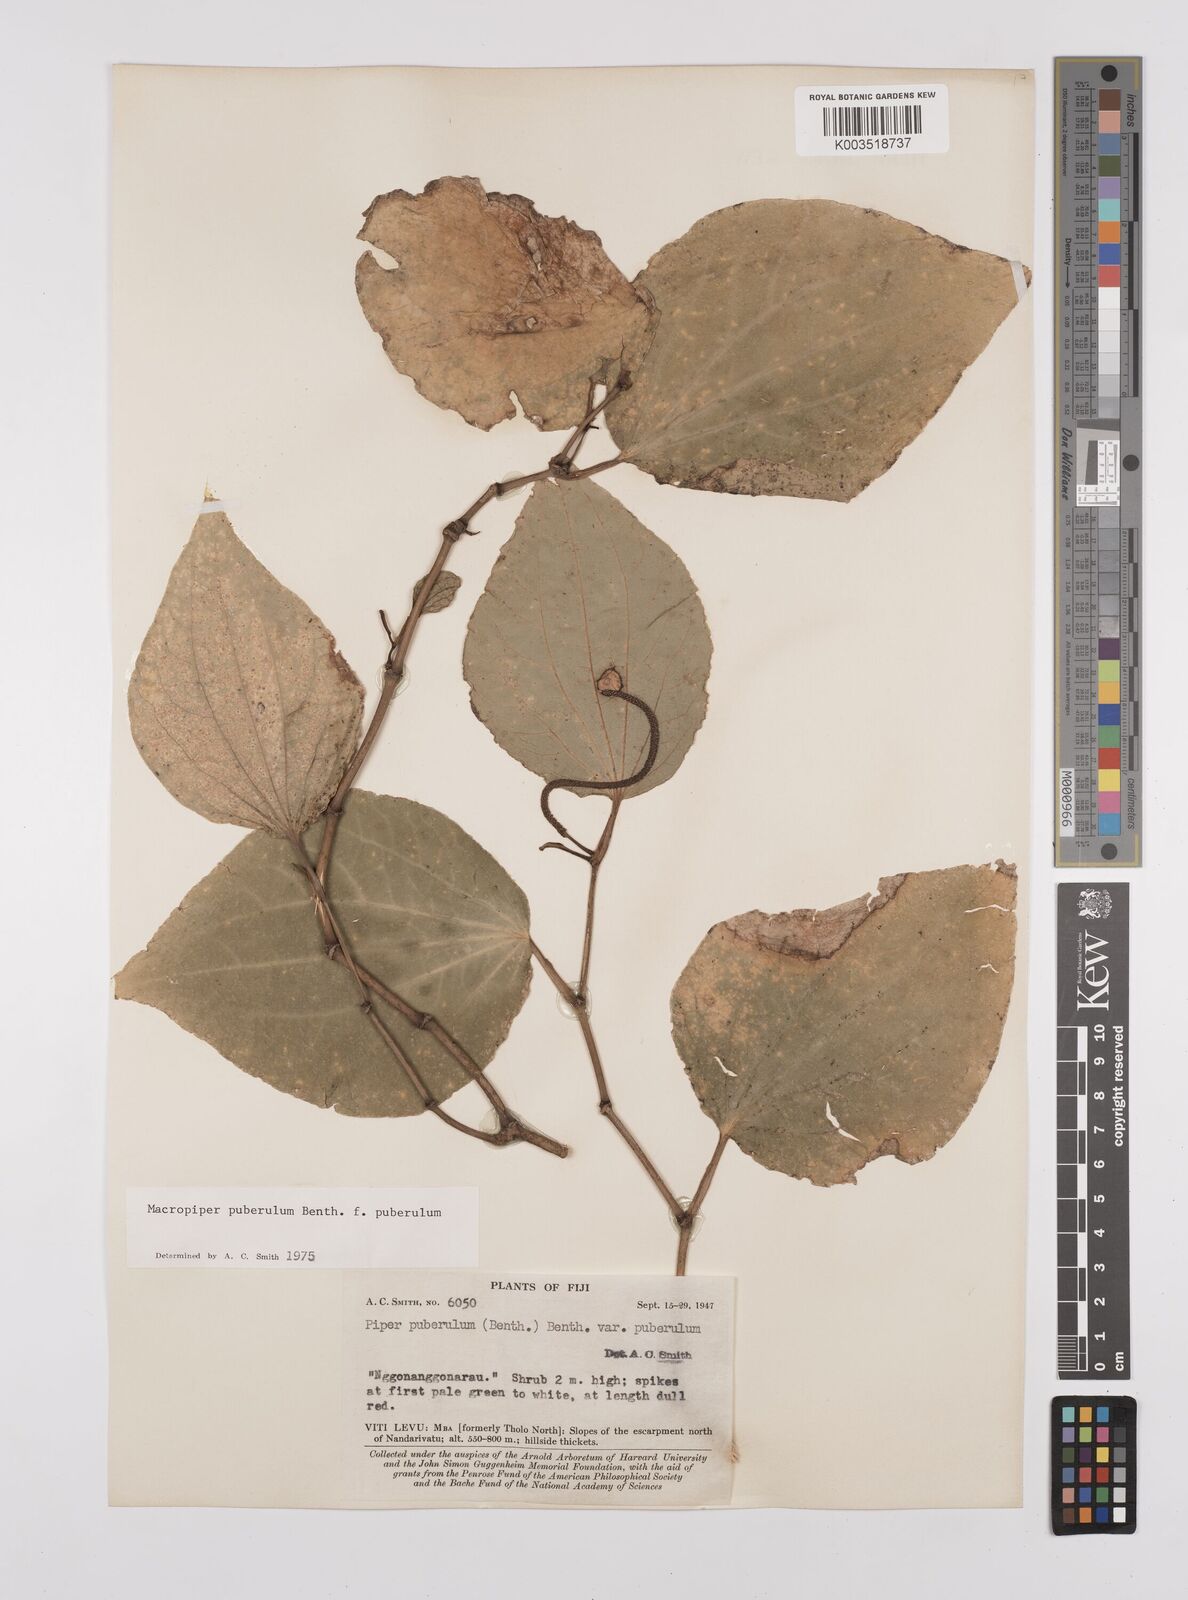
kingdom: Plantae
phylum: Tracheophyta
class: Magnoliopsida
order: Piperales
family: Piperaceae
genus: Macropiper
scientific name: Macropiper puberulum
